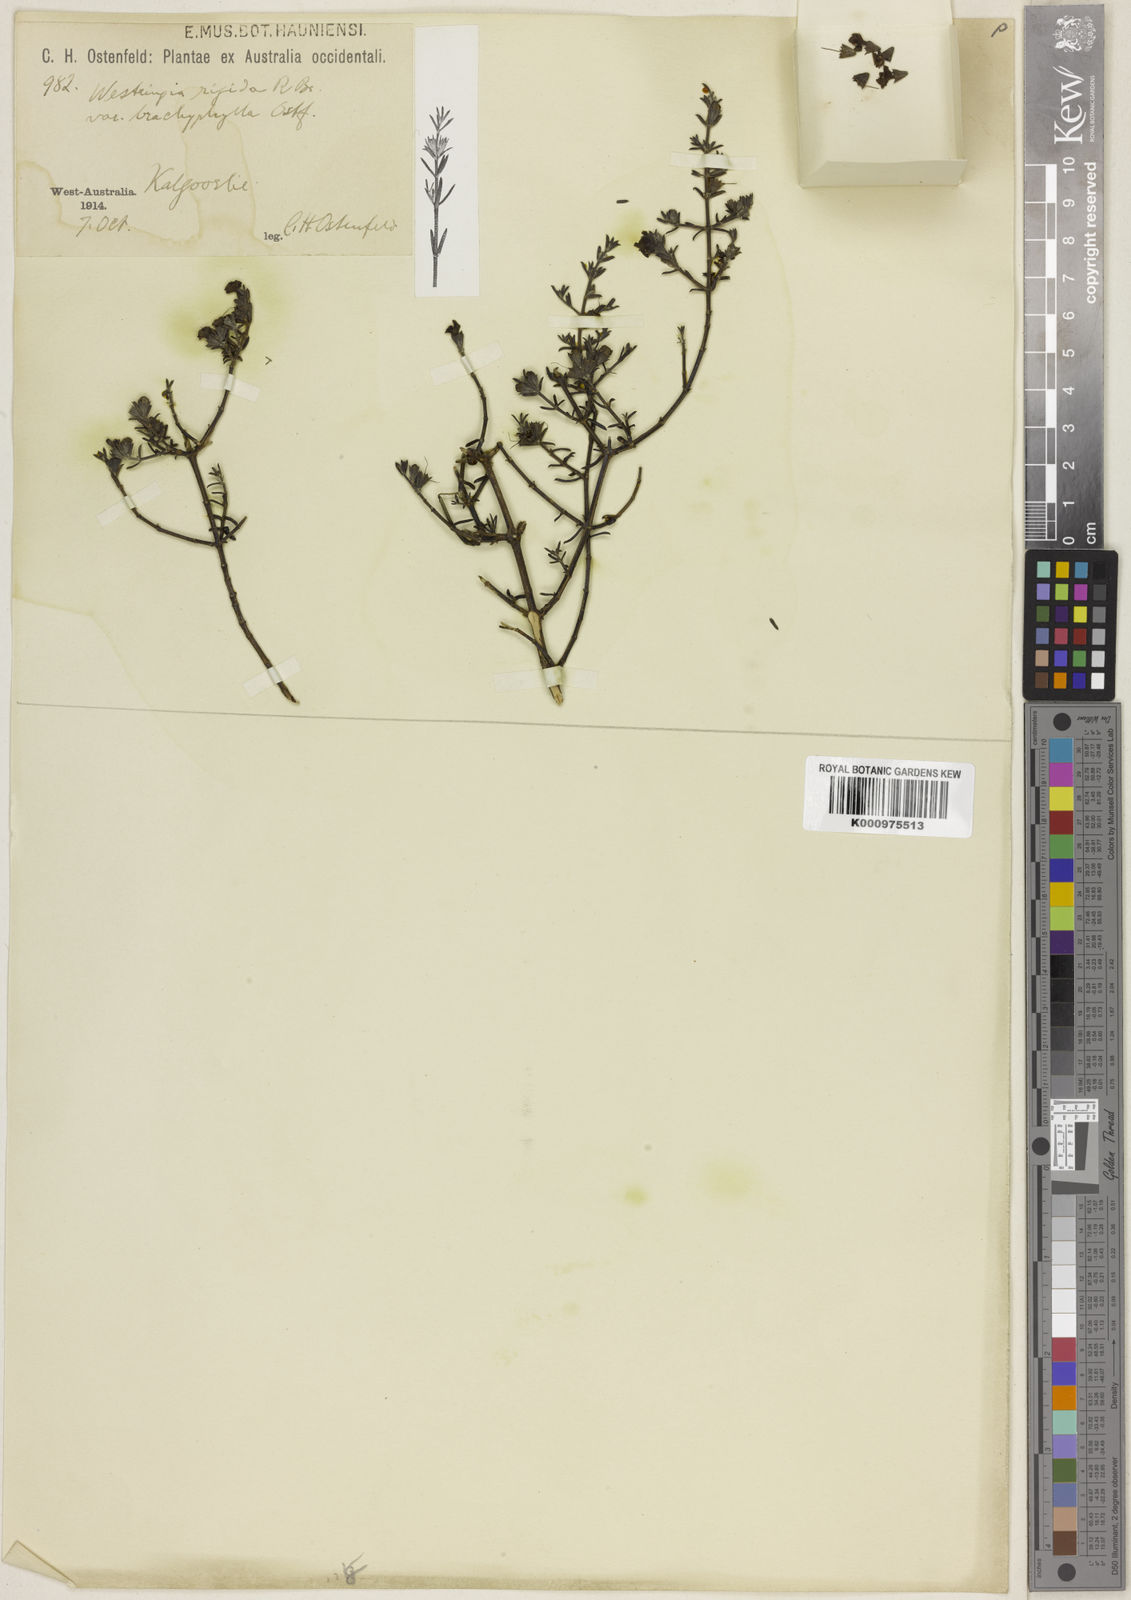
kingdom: Plantae
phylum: Tracheophyta
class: Magnoliopsida
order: Lamiales
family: Lamiaceae
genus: Westringia
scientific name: Westringia rigida
